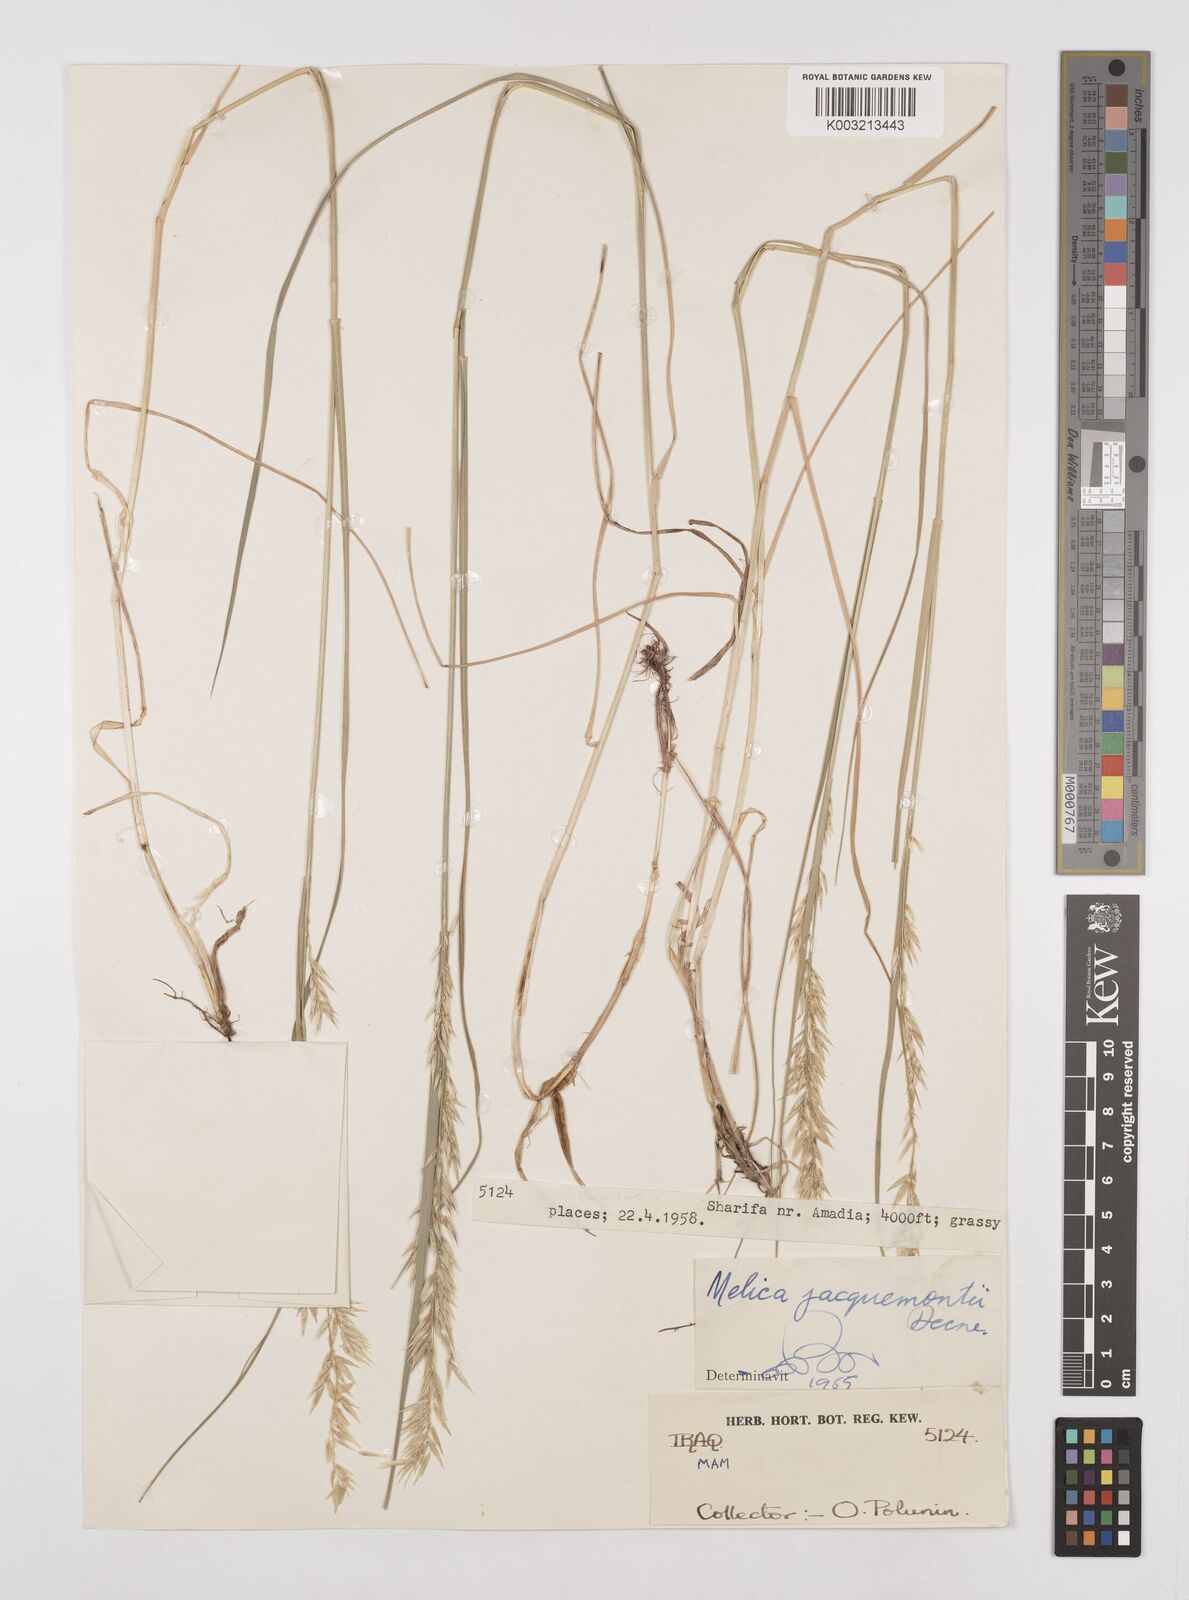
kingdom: Plantae
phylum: Tracheophyta
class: Liliopsida
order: Poales
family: Poaceae
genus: Melica
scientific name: Melica persica
